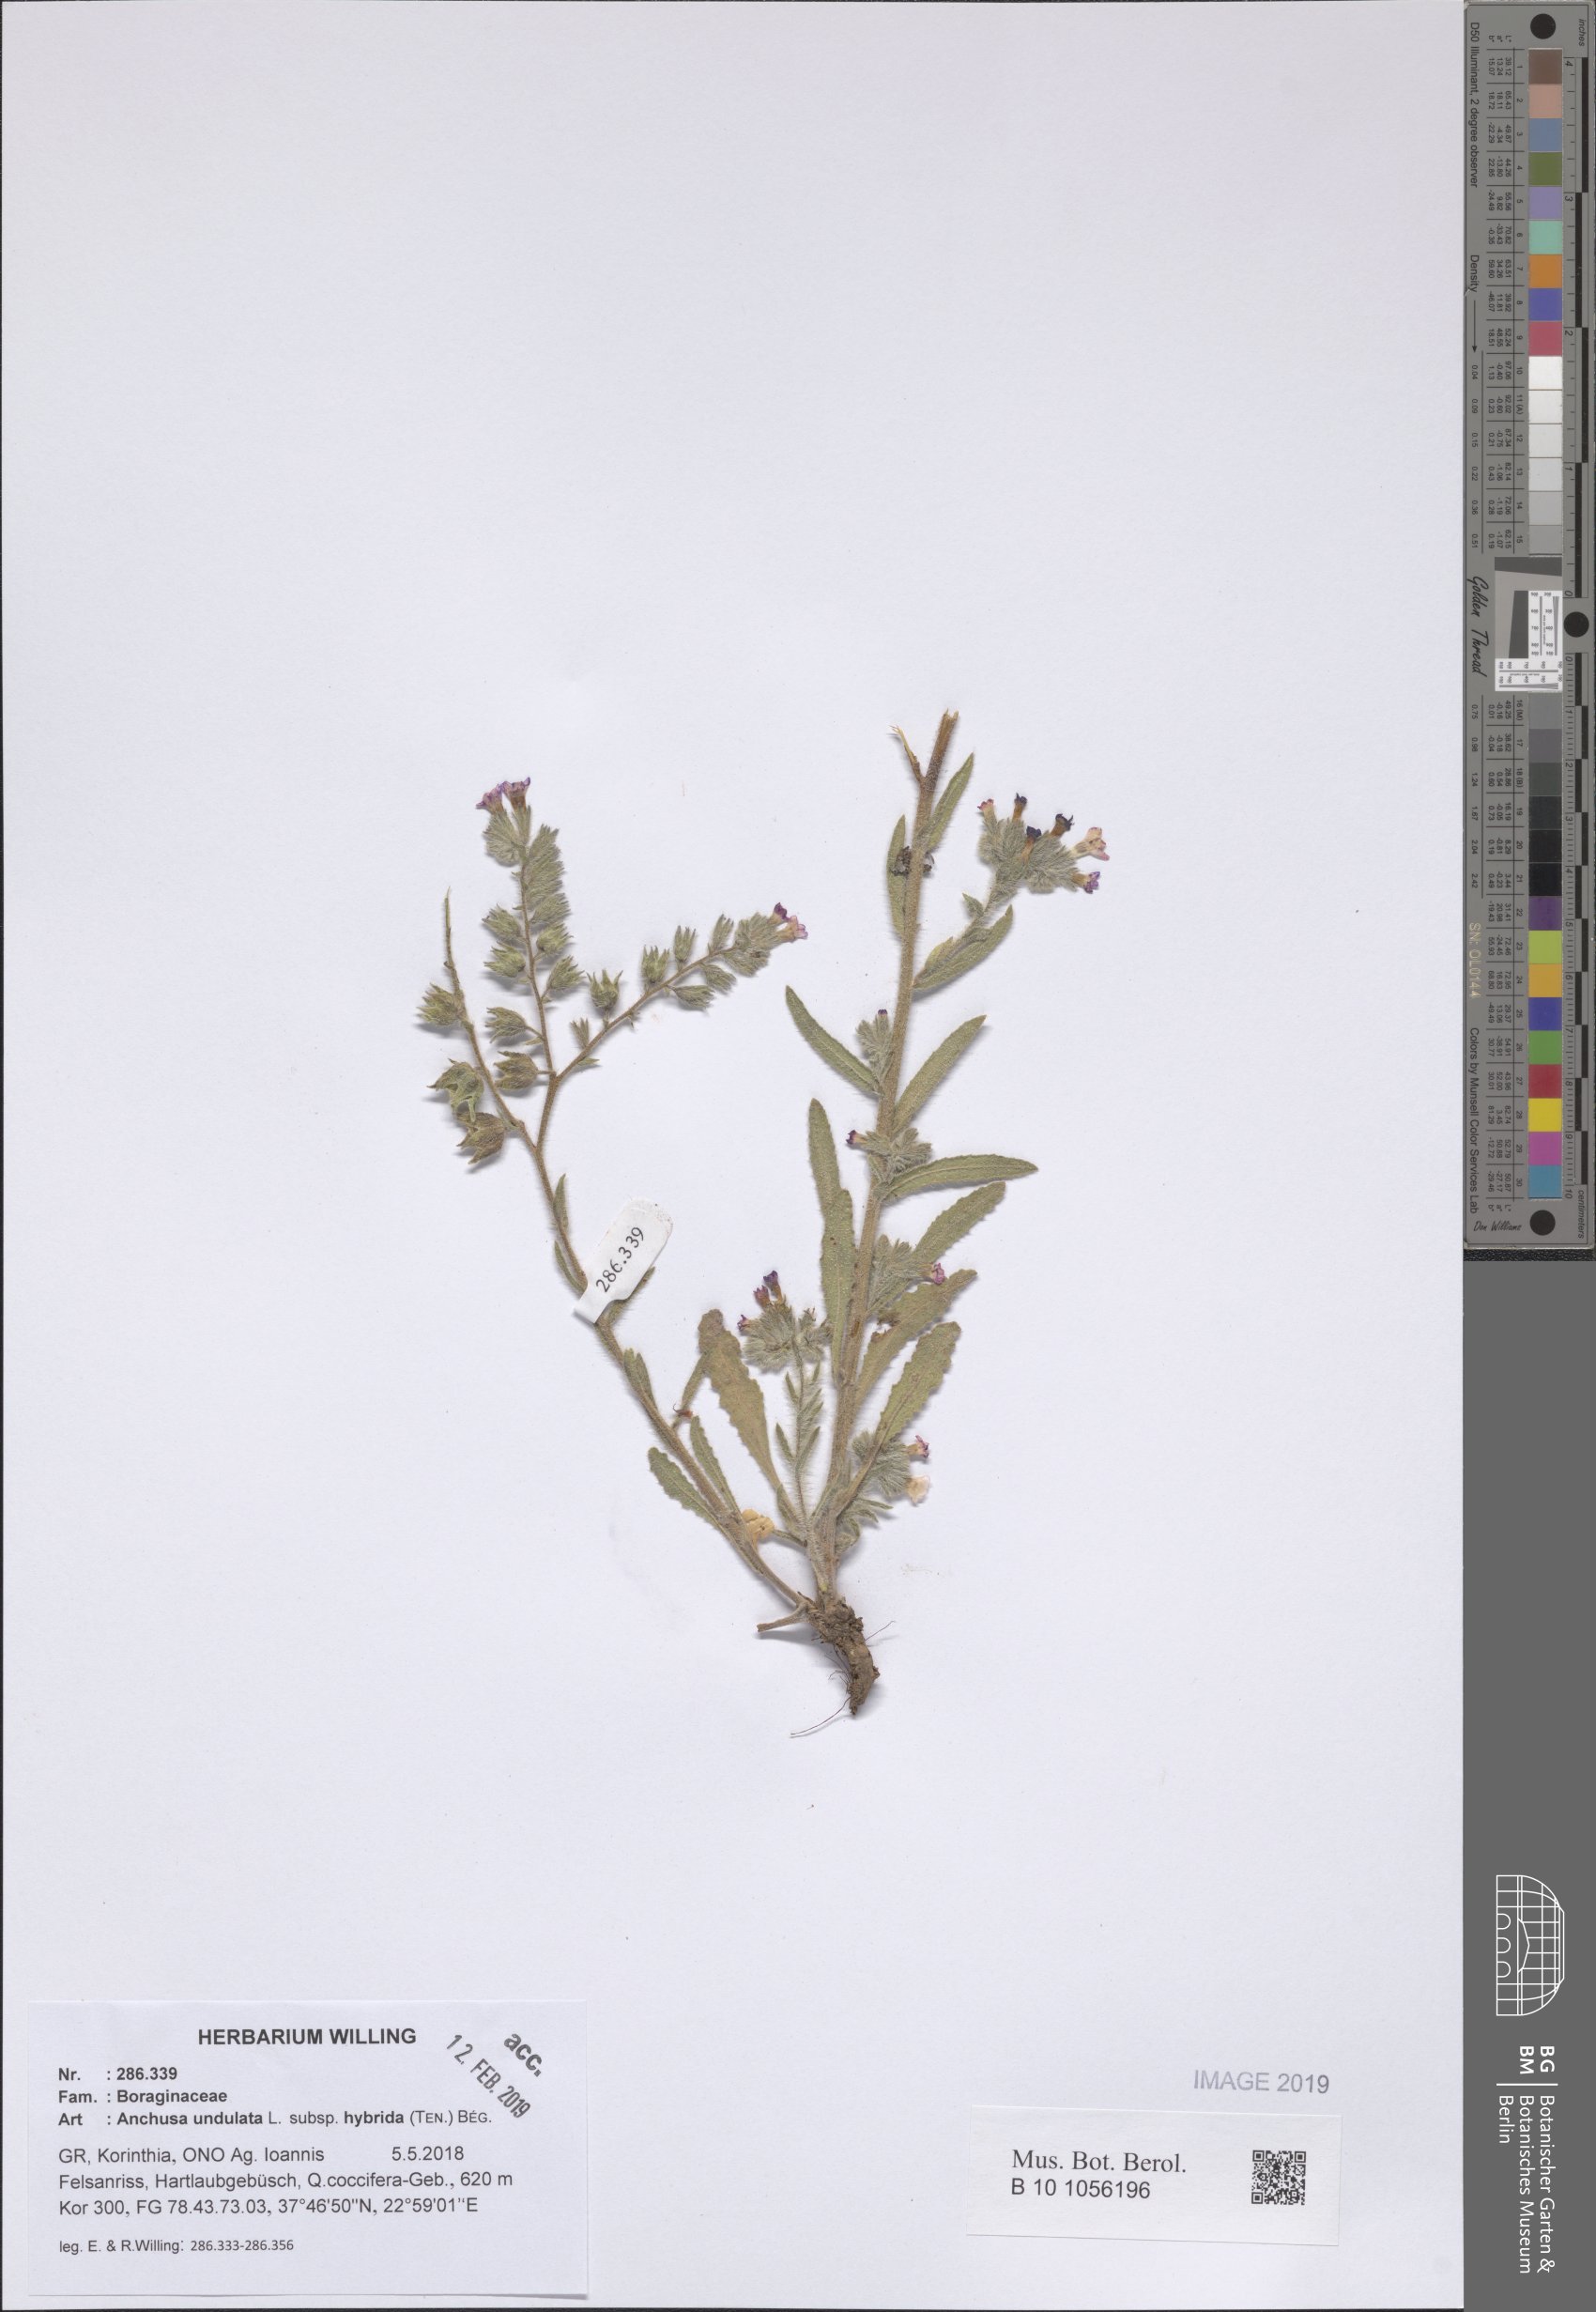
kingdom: Plantae
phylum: Tracheophyta
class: Magnoliopsida
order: Boraginales
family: Boraginaceae
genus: Anchusa
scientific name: Anchusa undulata
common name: Undulate alkanet
